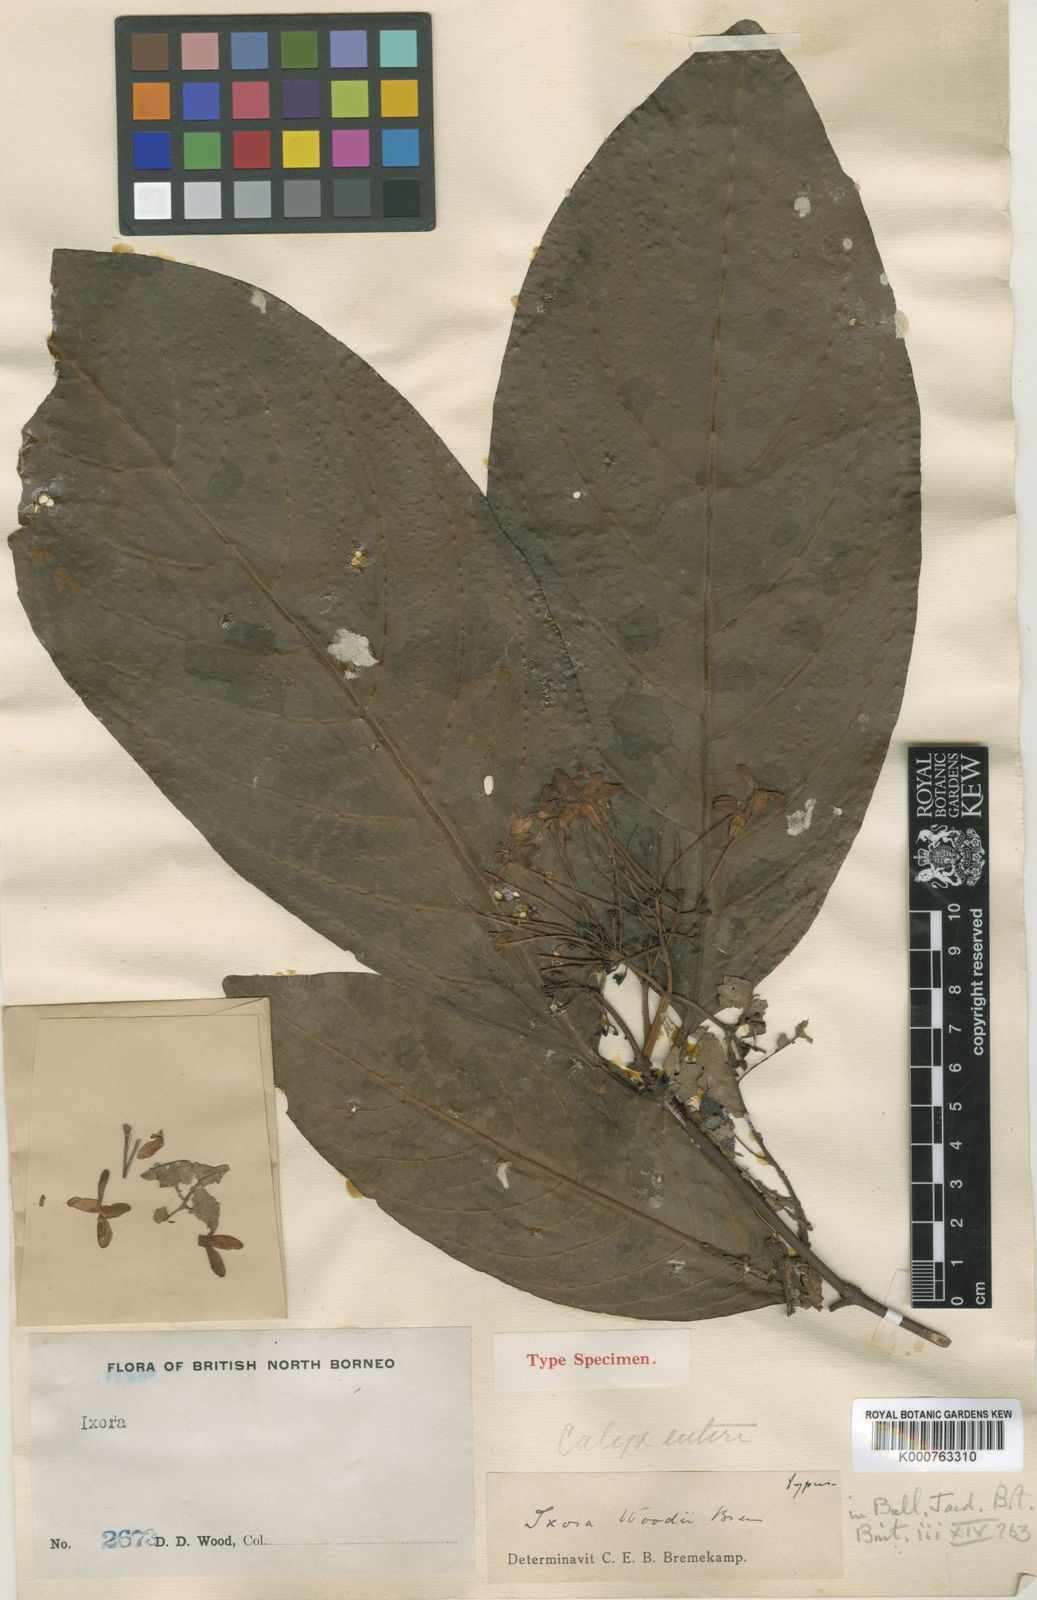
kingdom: Plantae
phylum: Tracheophyta
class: Magnoliopsida
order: Gentianales
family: Rubiaceae
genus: Ixora
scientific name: Ixora woodii
